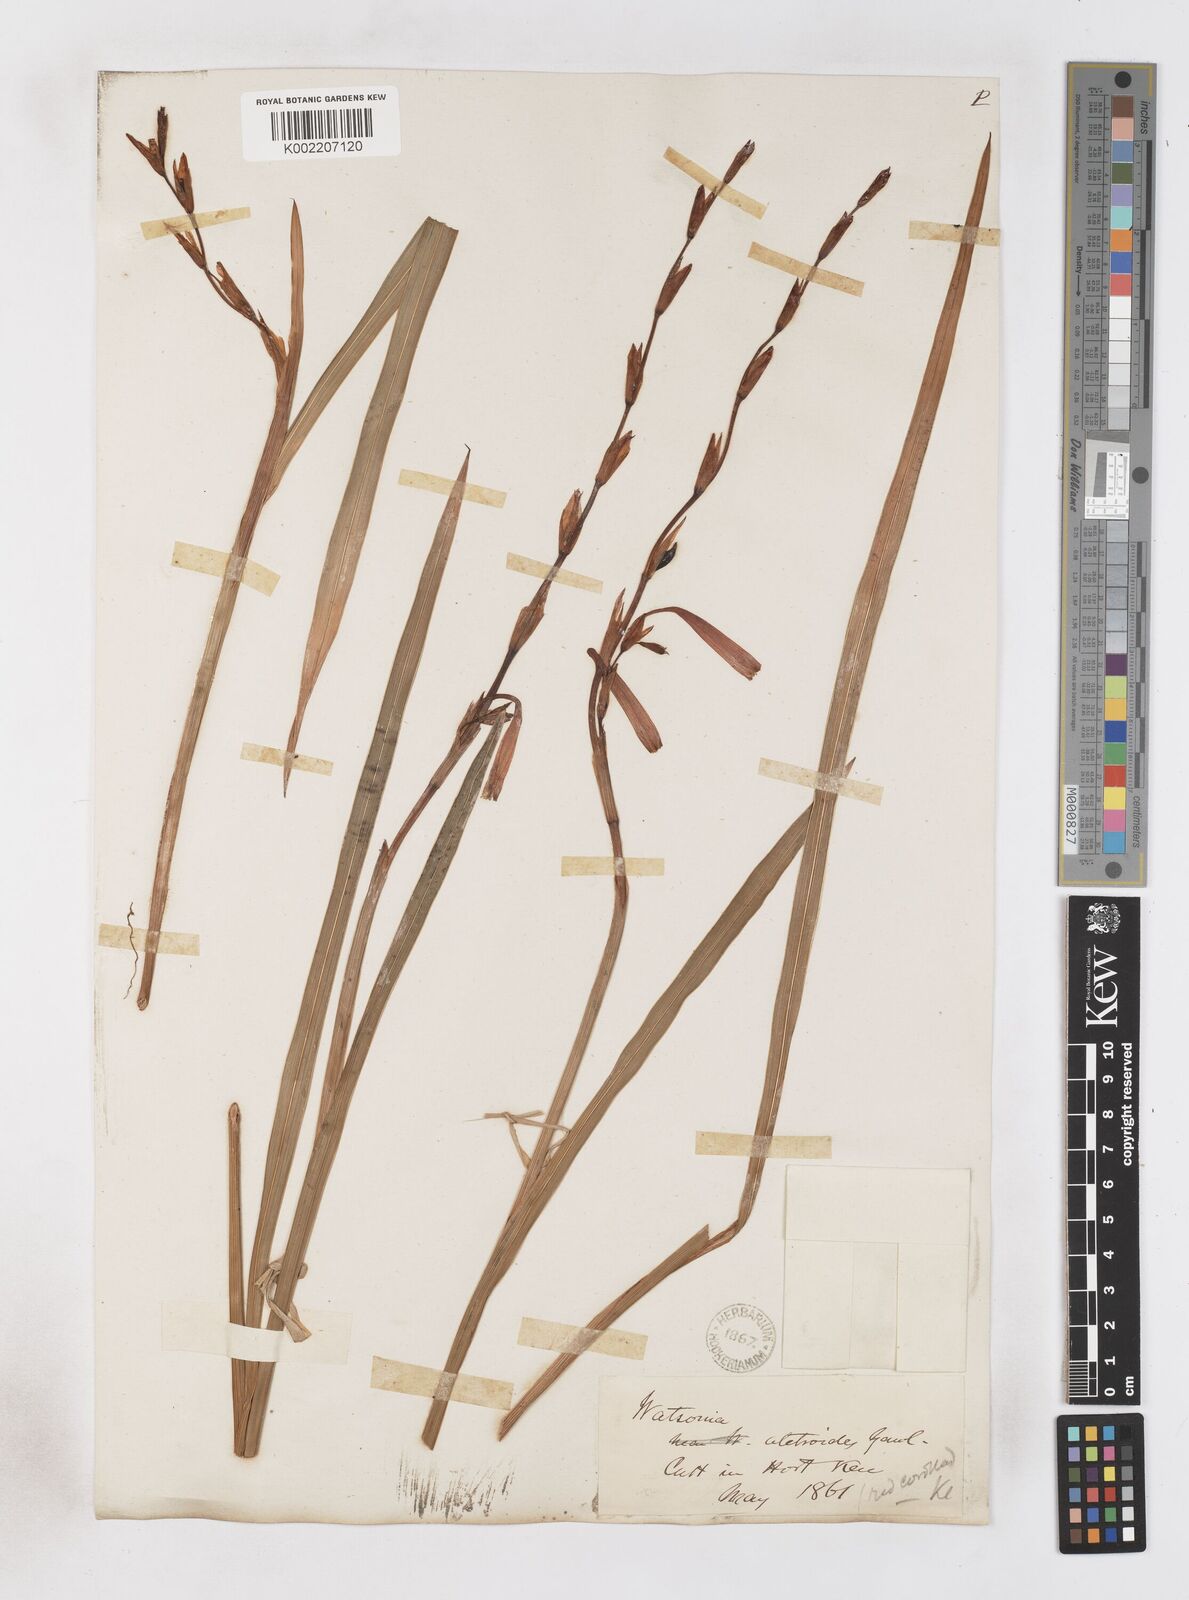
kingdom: Plantae
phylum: Tracheophyta
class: Liliopsida
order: Asparagales
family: Iridaceae
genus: Watsonia
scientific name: Watsonia aletroides
